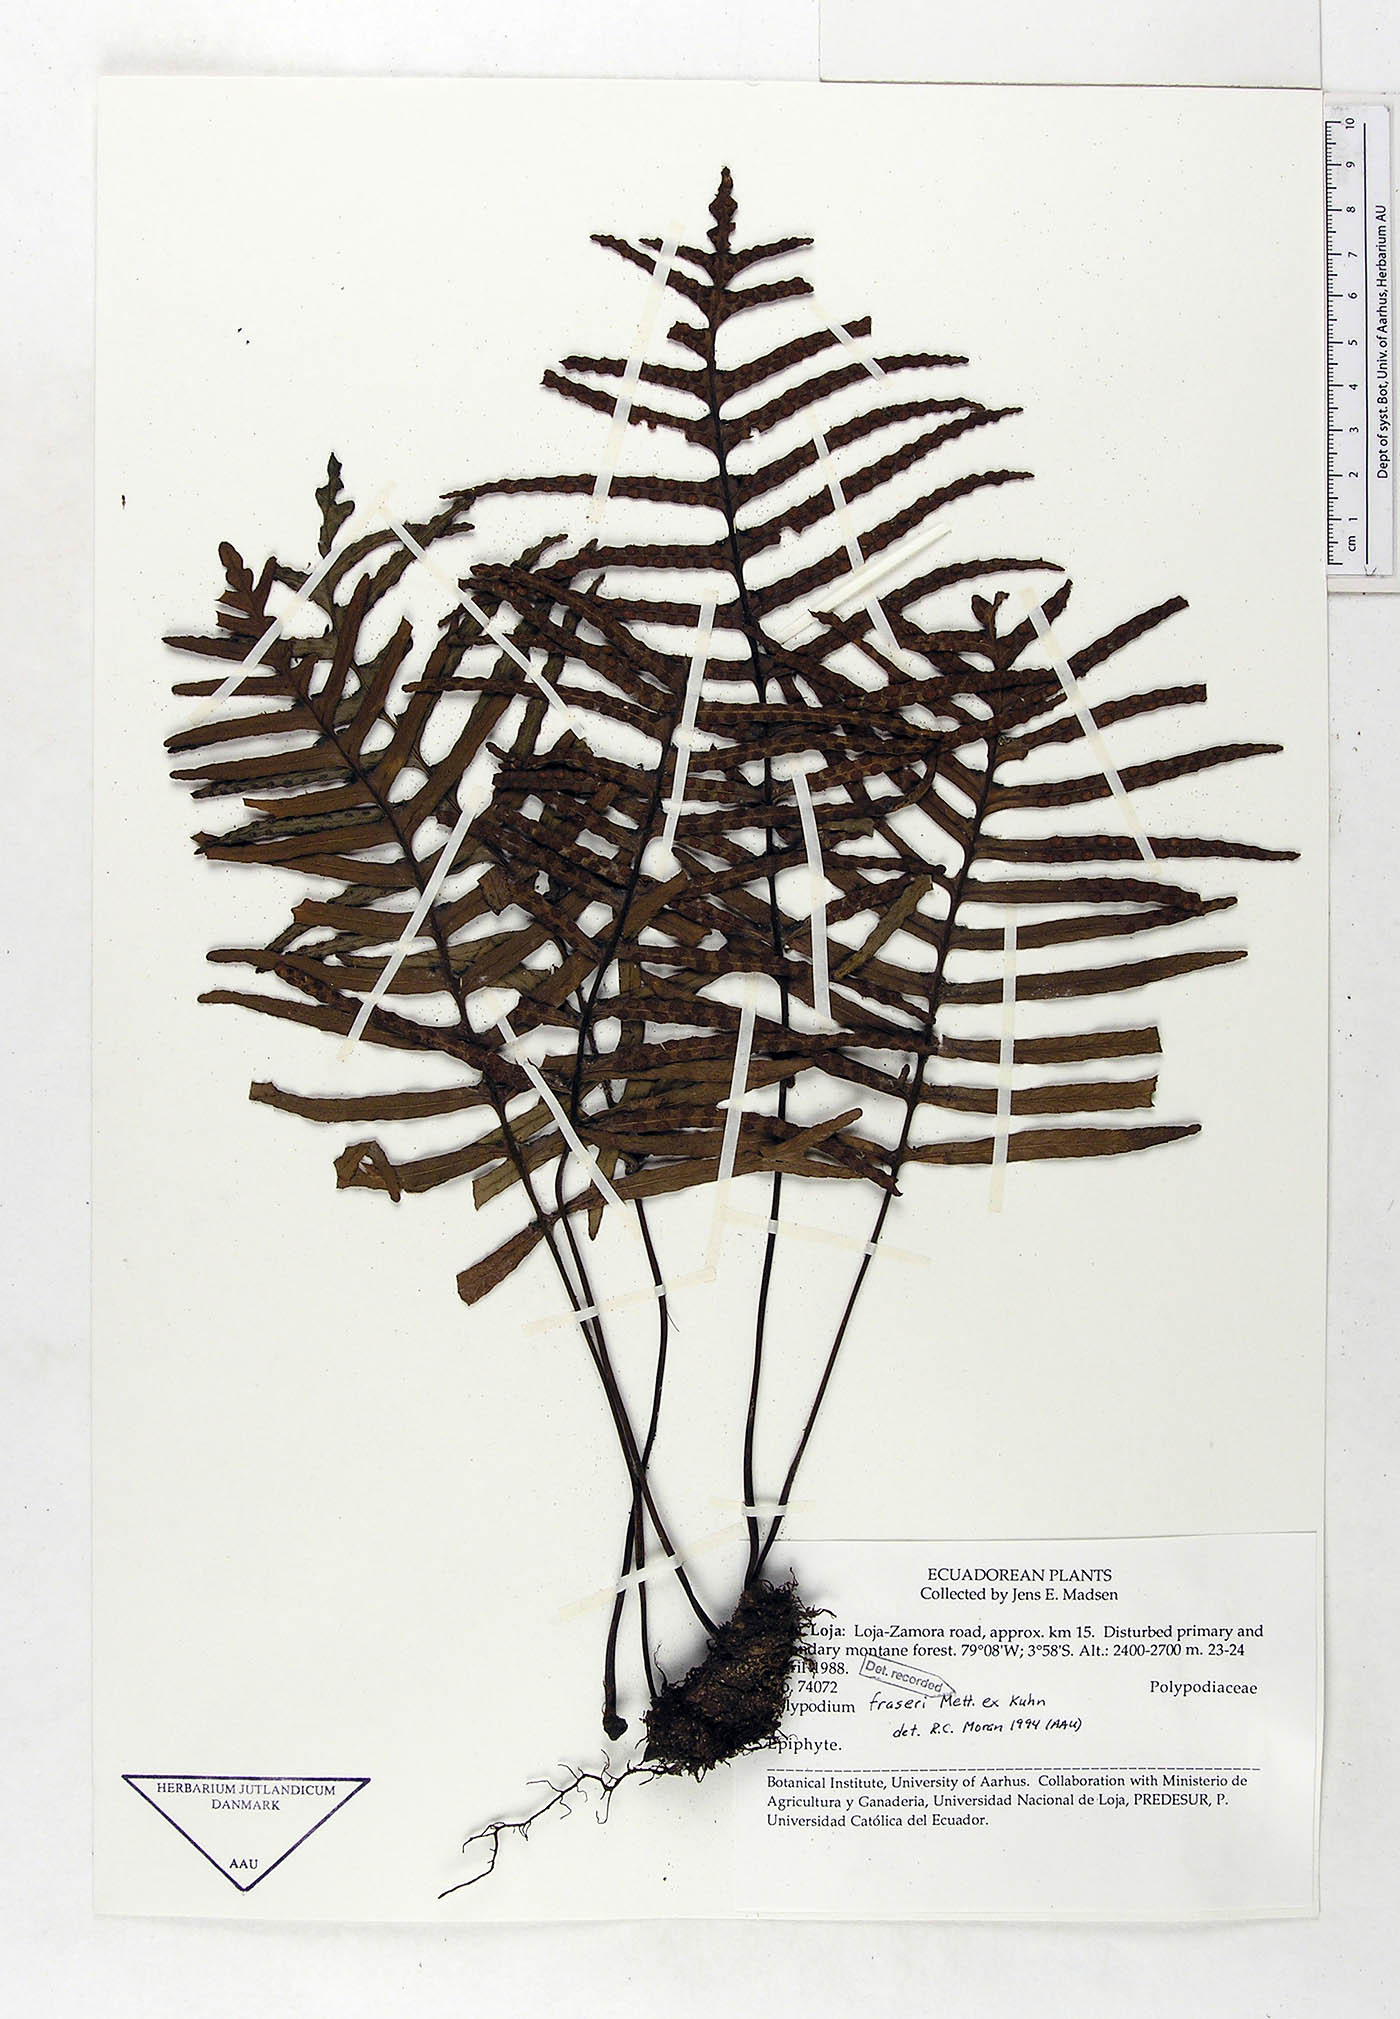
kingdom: Plantae
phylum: Tracheophyta
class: Polypodiopsida
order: Polypodiales
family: Polypodiaceae
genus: Pleopeltis
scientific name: Pleopeltis fraseri
